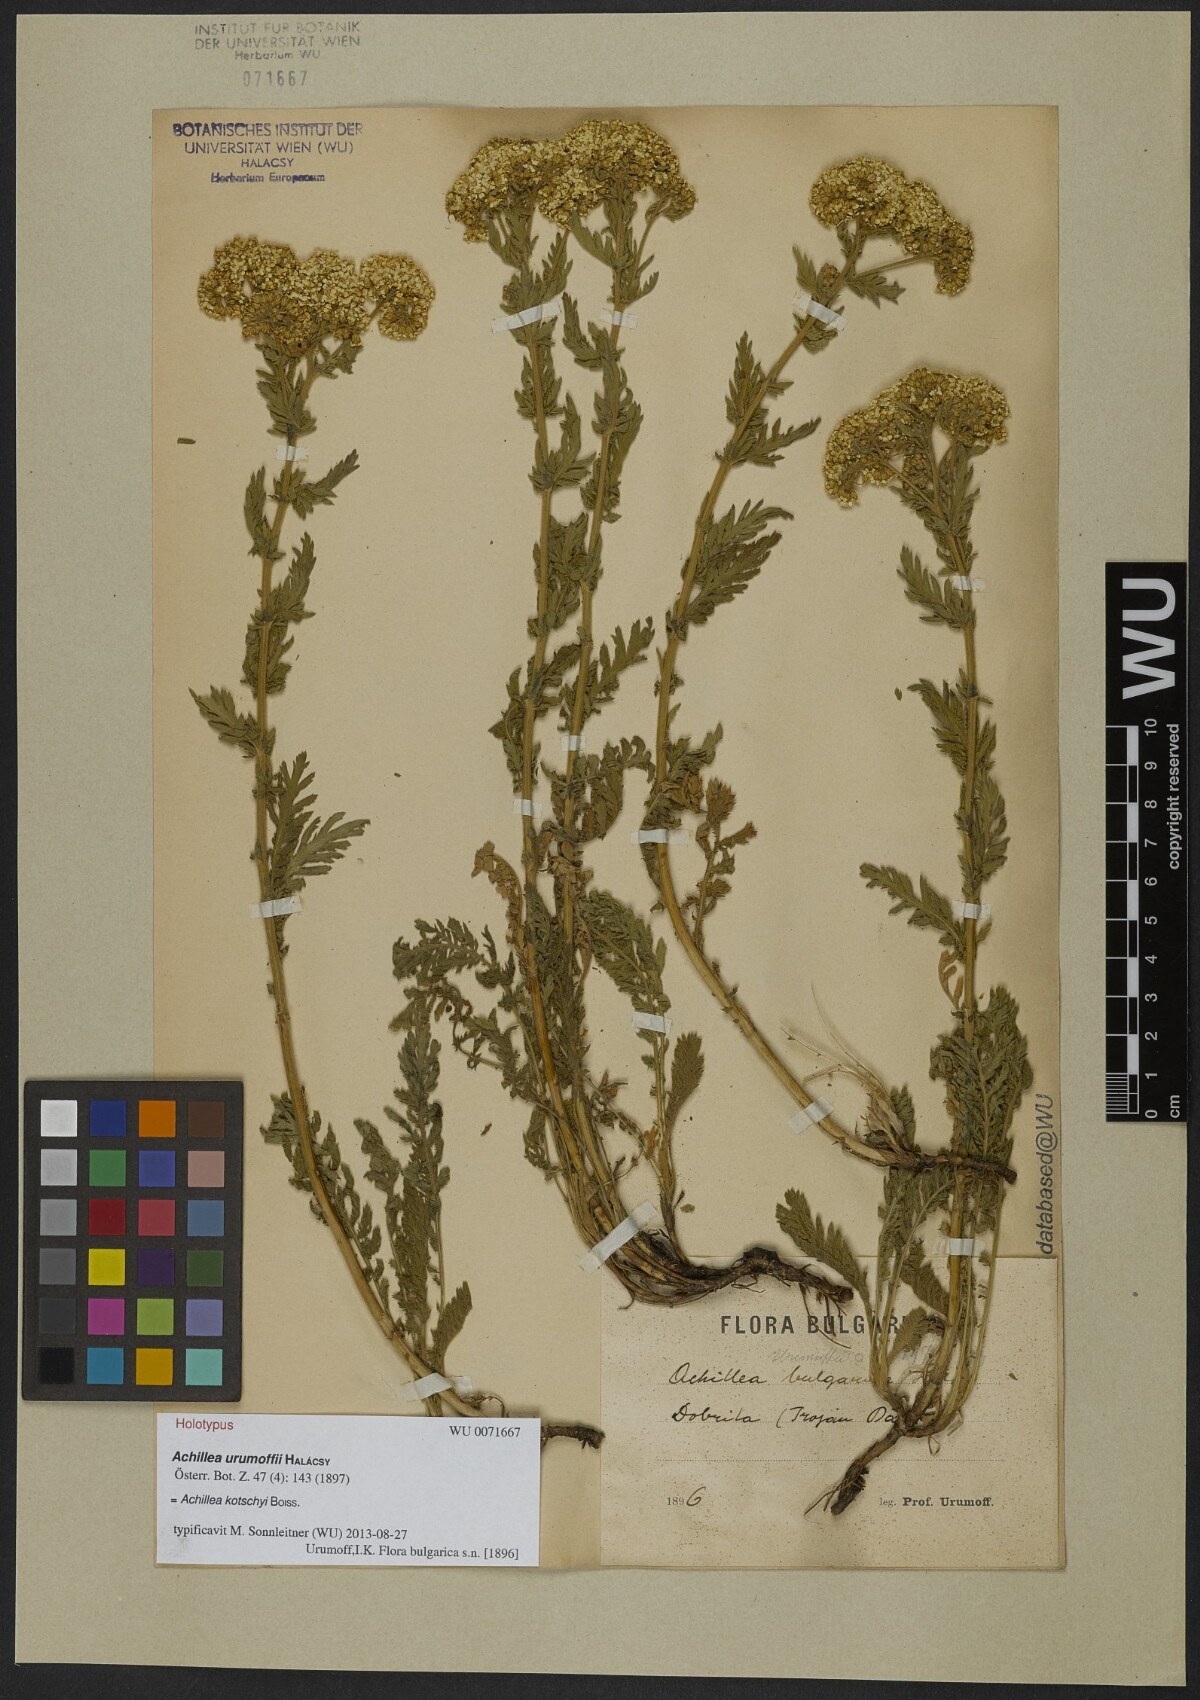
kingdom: Plantae
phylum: Tracheophyta
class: Magnoliopsida
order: Asterales
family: Asteraceae
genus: Achillea
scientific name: Achillea kotschyi
